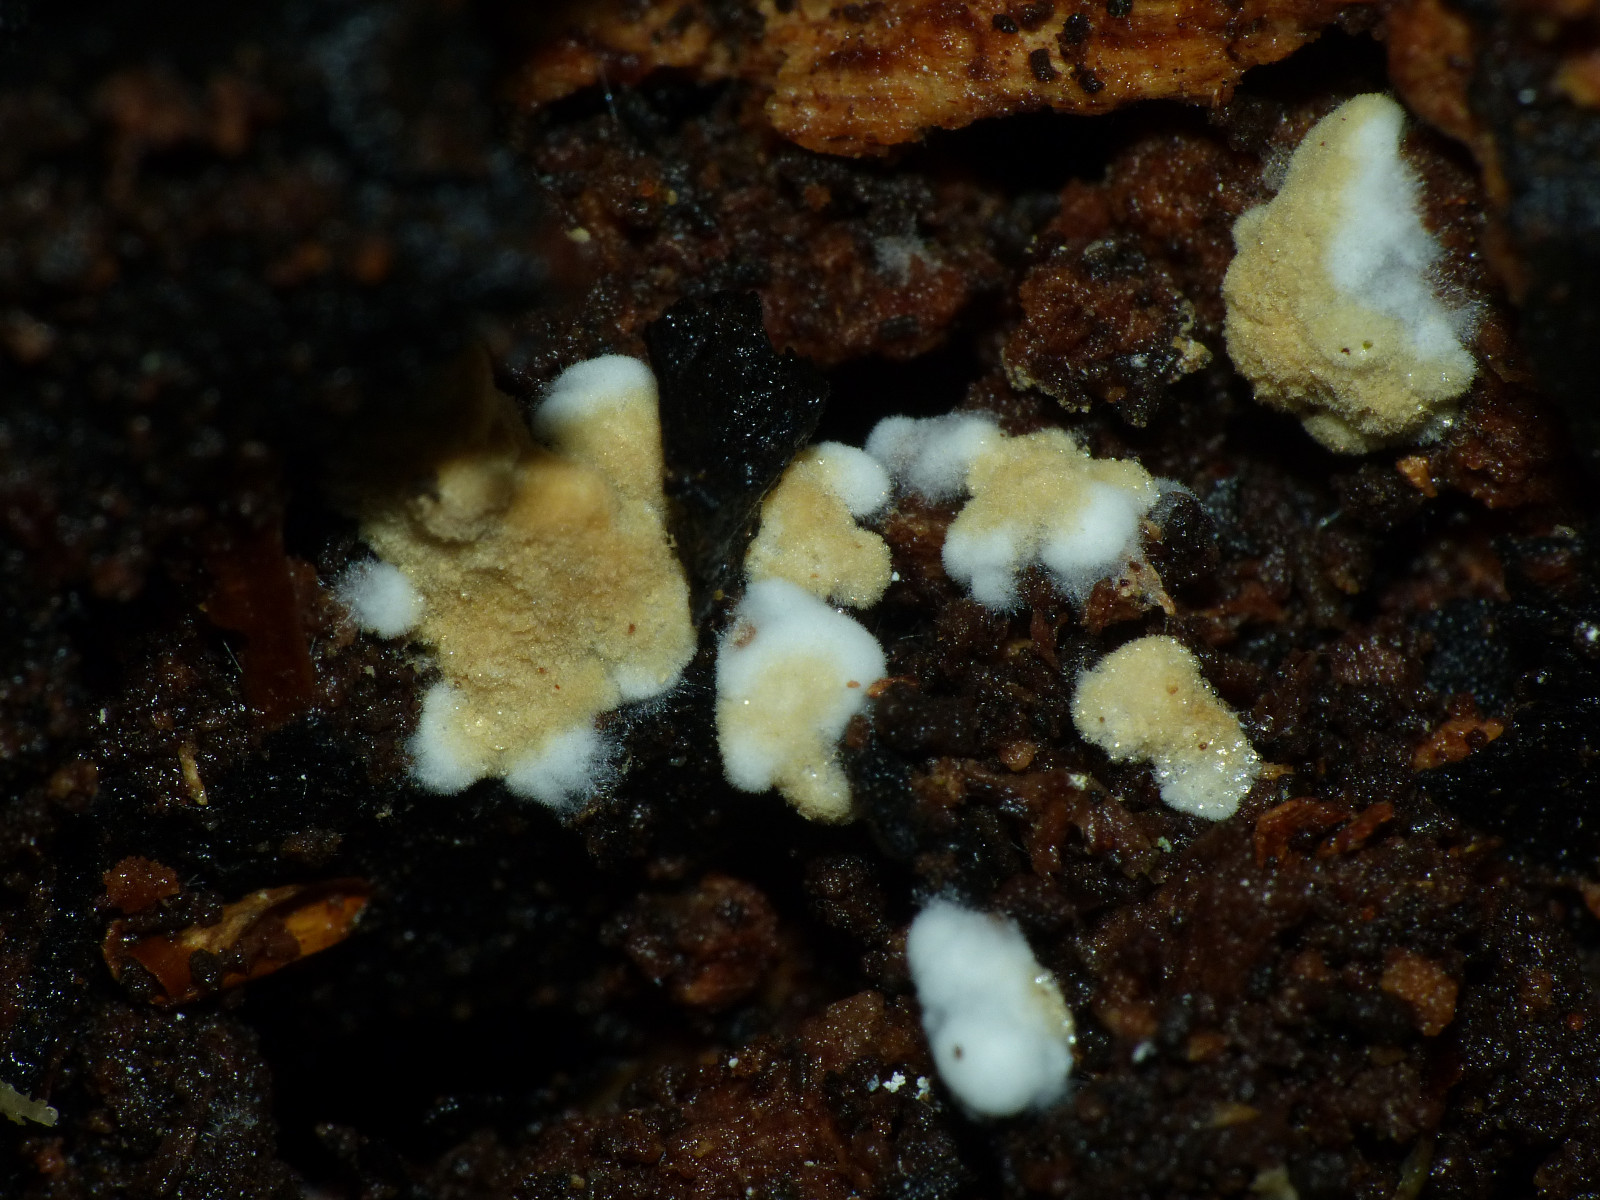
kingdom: Fungi
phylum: Basidiomycota
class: Agaricomycetes
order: Cantharellales
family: Botryobasidiaceae
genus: Botryobasidium
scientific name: Botryobasidium aureum
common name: gylden spindhinde
